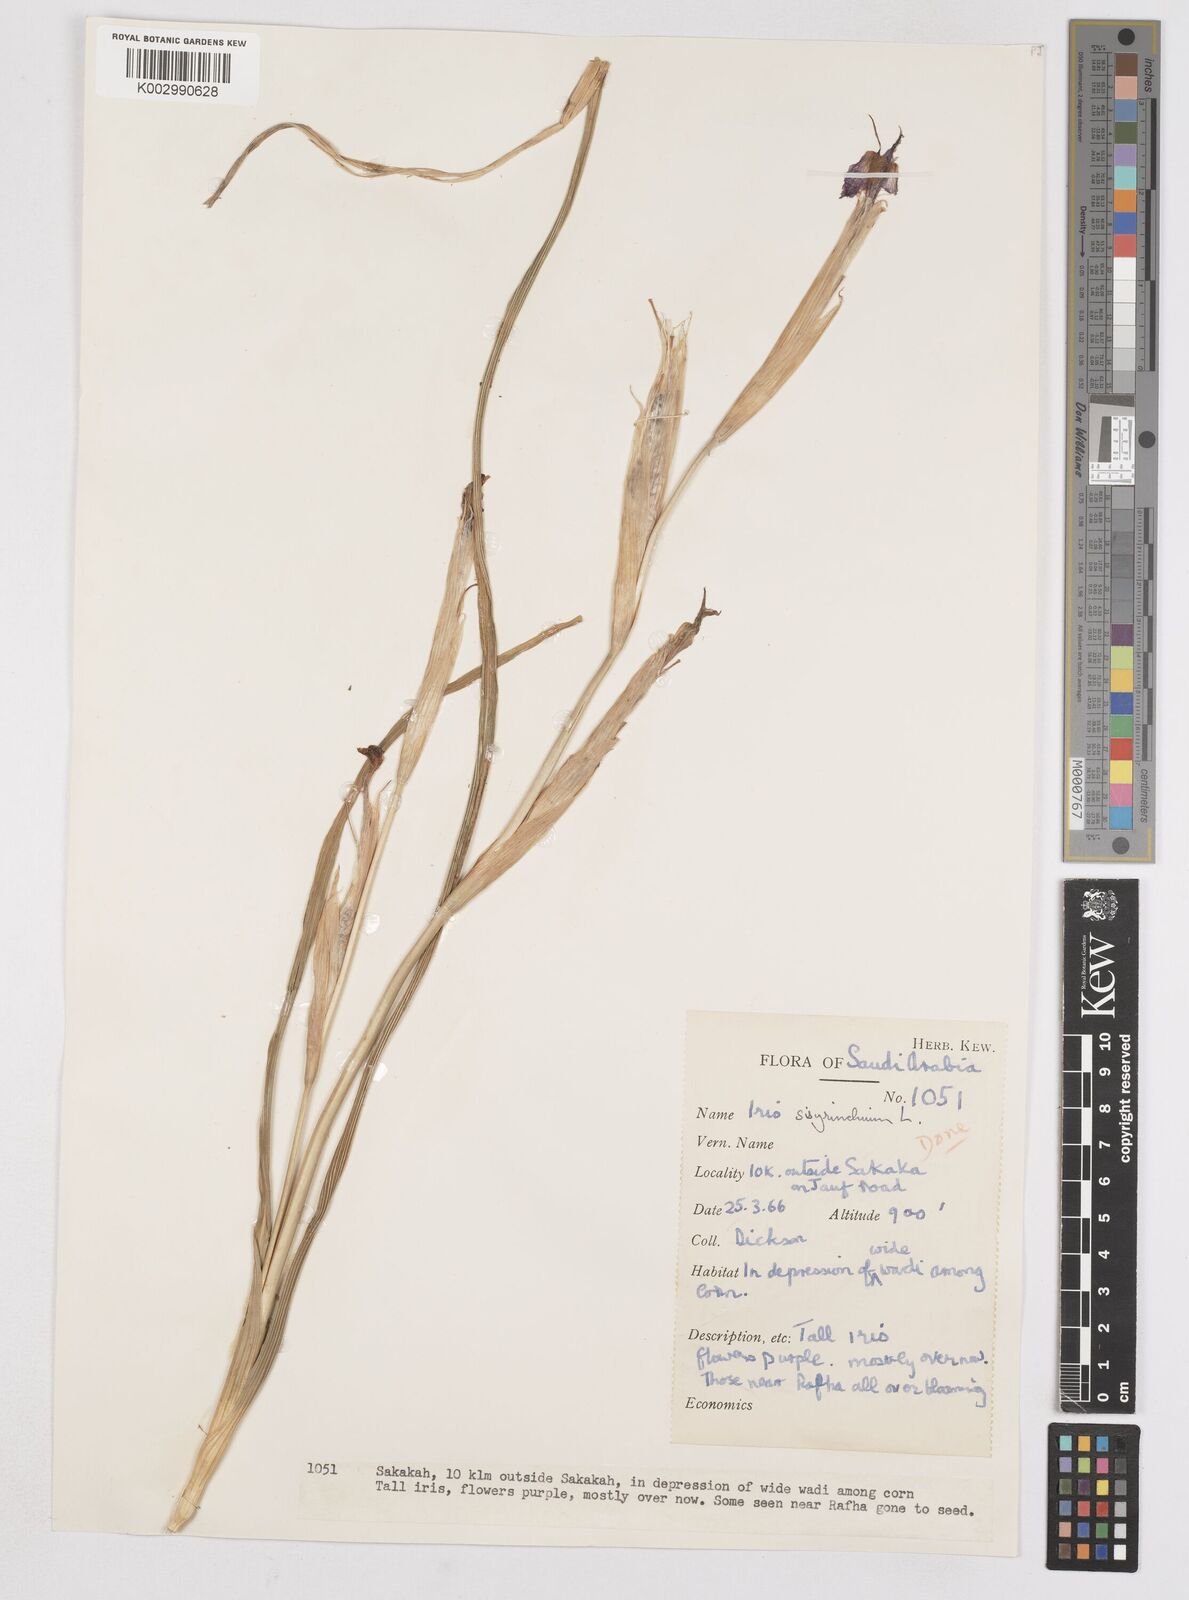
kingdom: Plantae
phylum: Tracheophyta
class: Liliopsida
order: Asparagales
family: Iridaceae
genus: Moraea
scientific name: Moraea sisyrinchium
